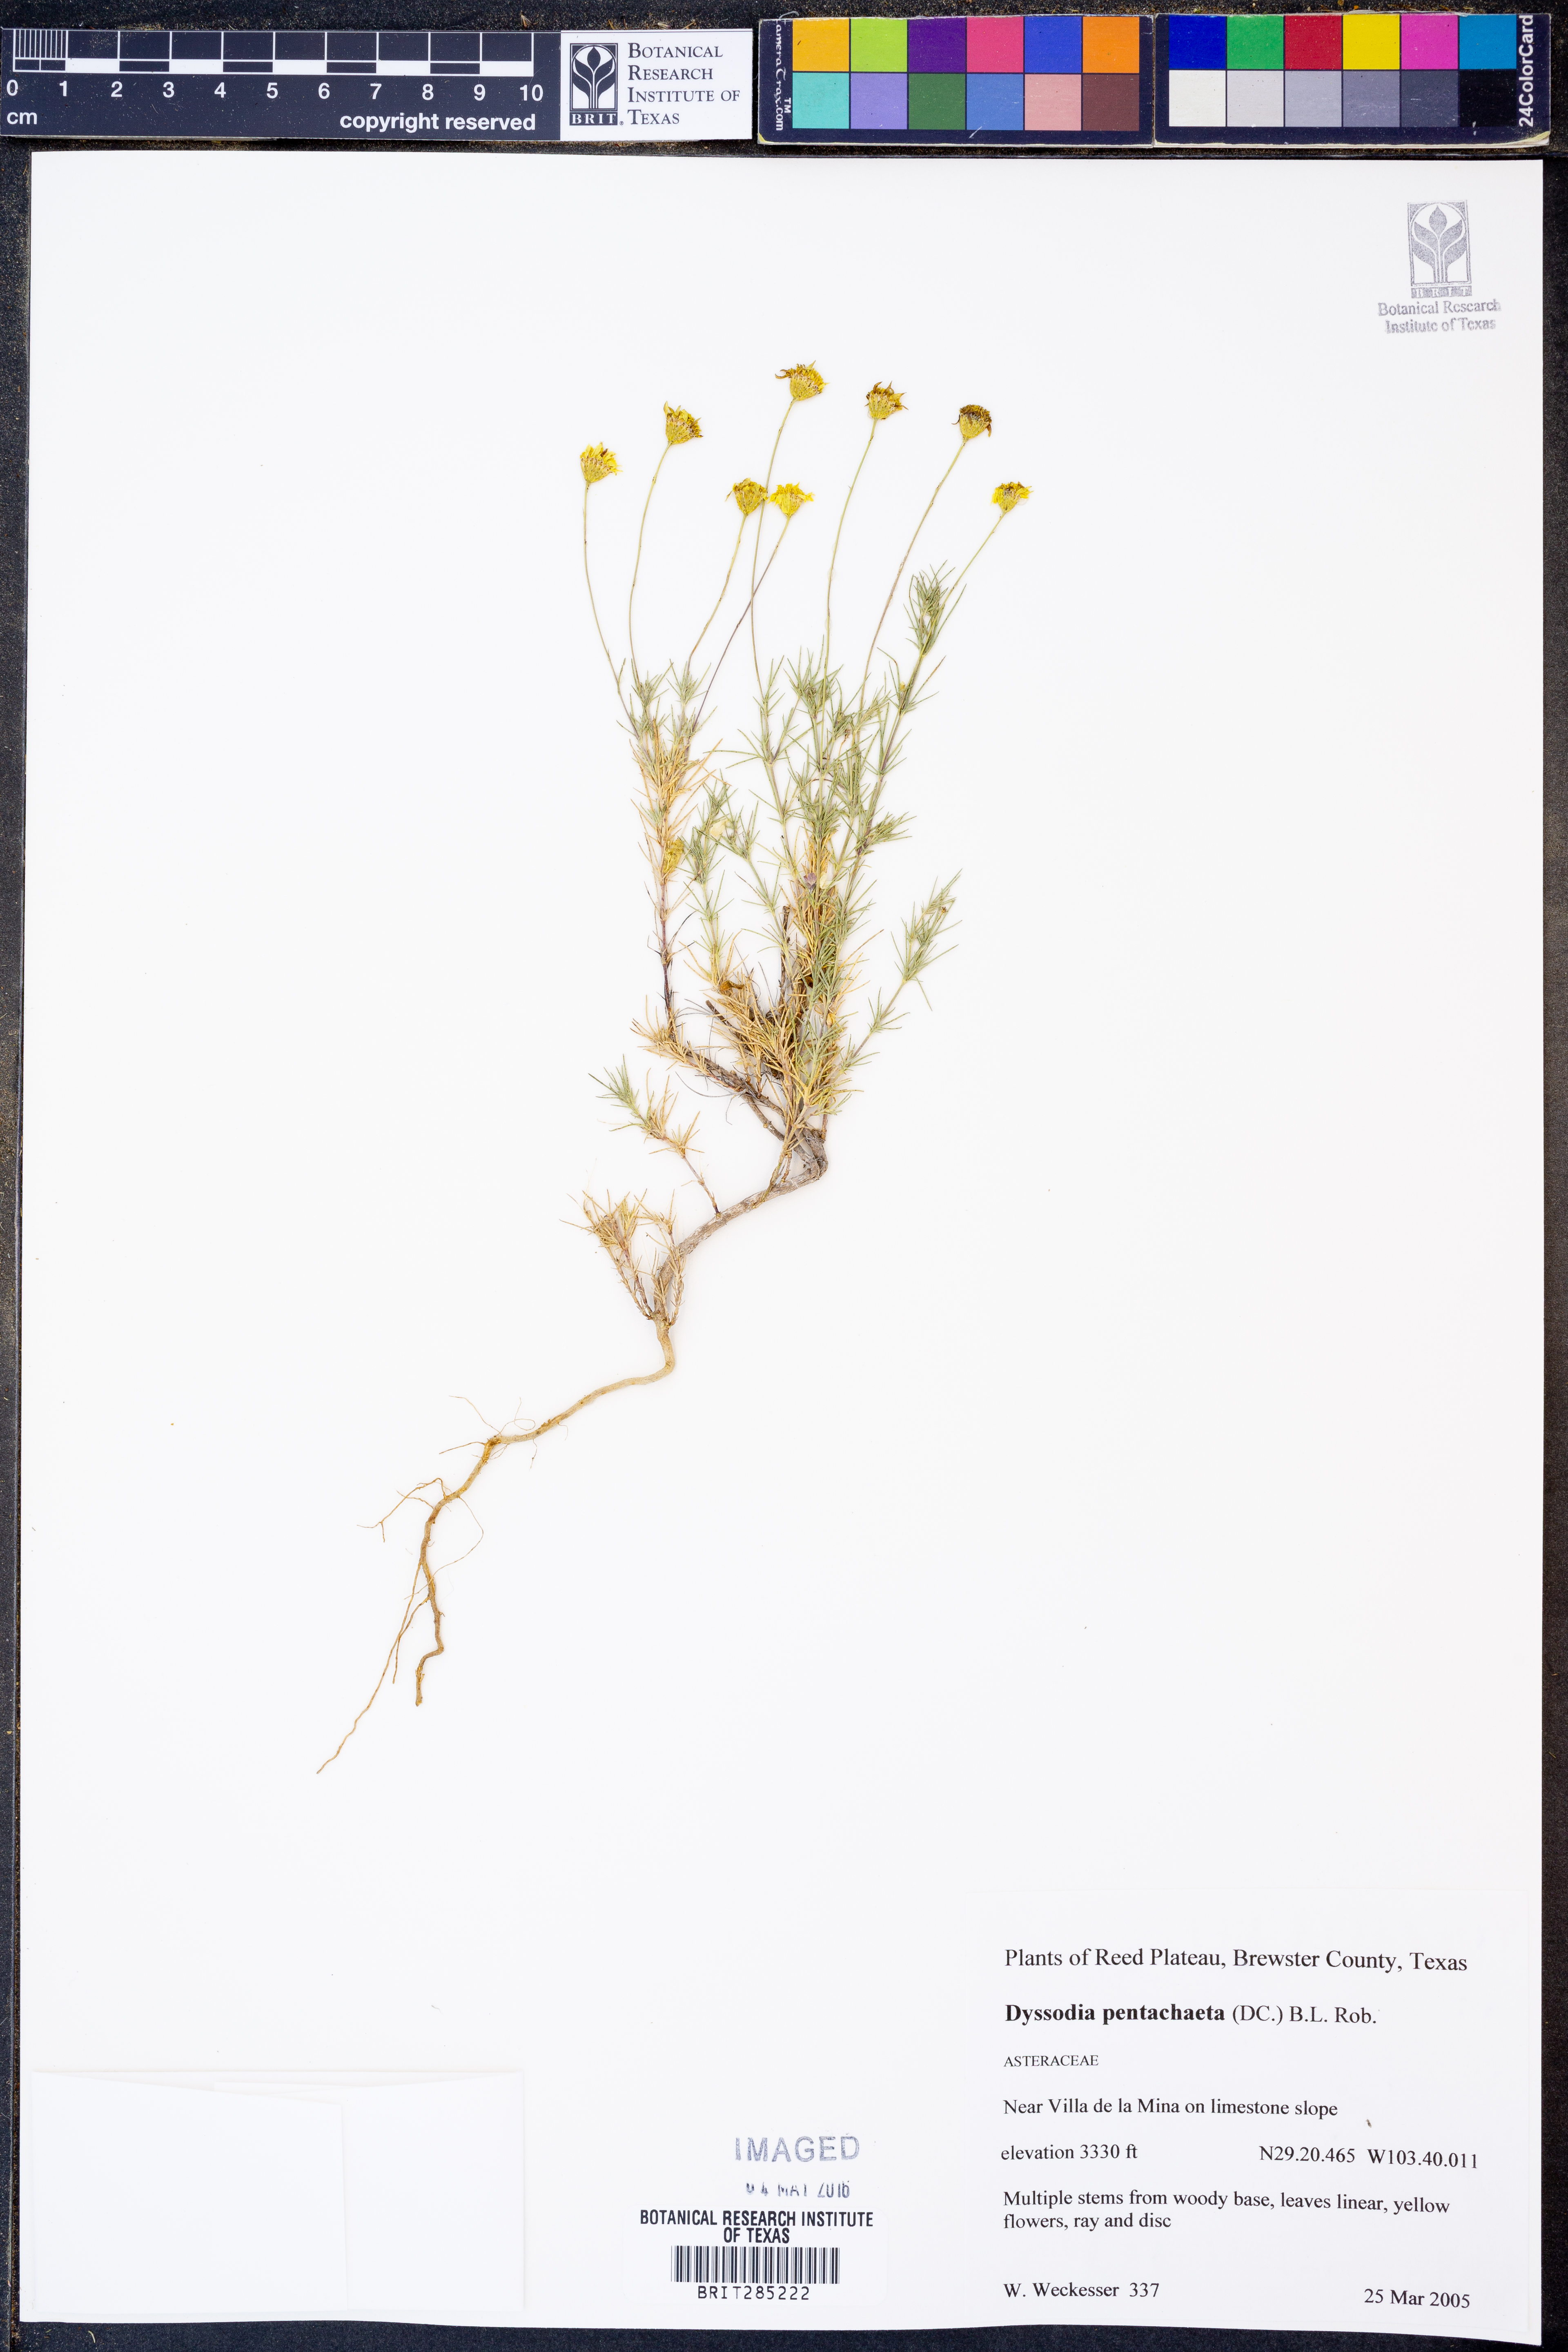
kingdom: Plantae
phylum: Tracheophyta
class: Magnoliopsida
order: Asterales
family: Asteraceae
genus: Thymophylla
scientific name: Thymophylla pentachaeta
